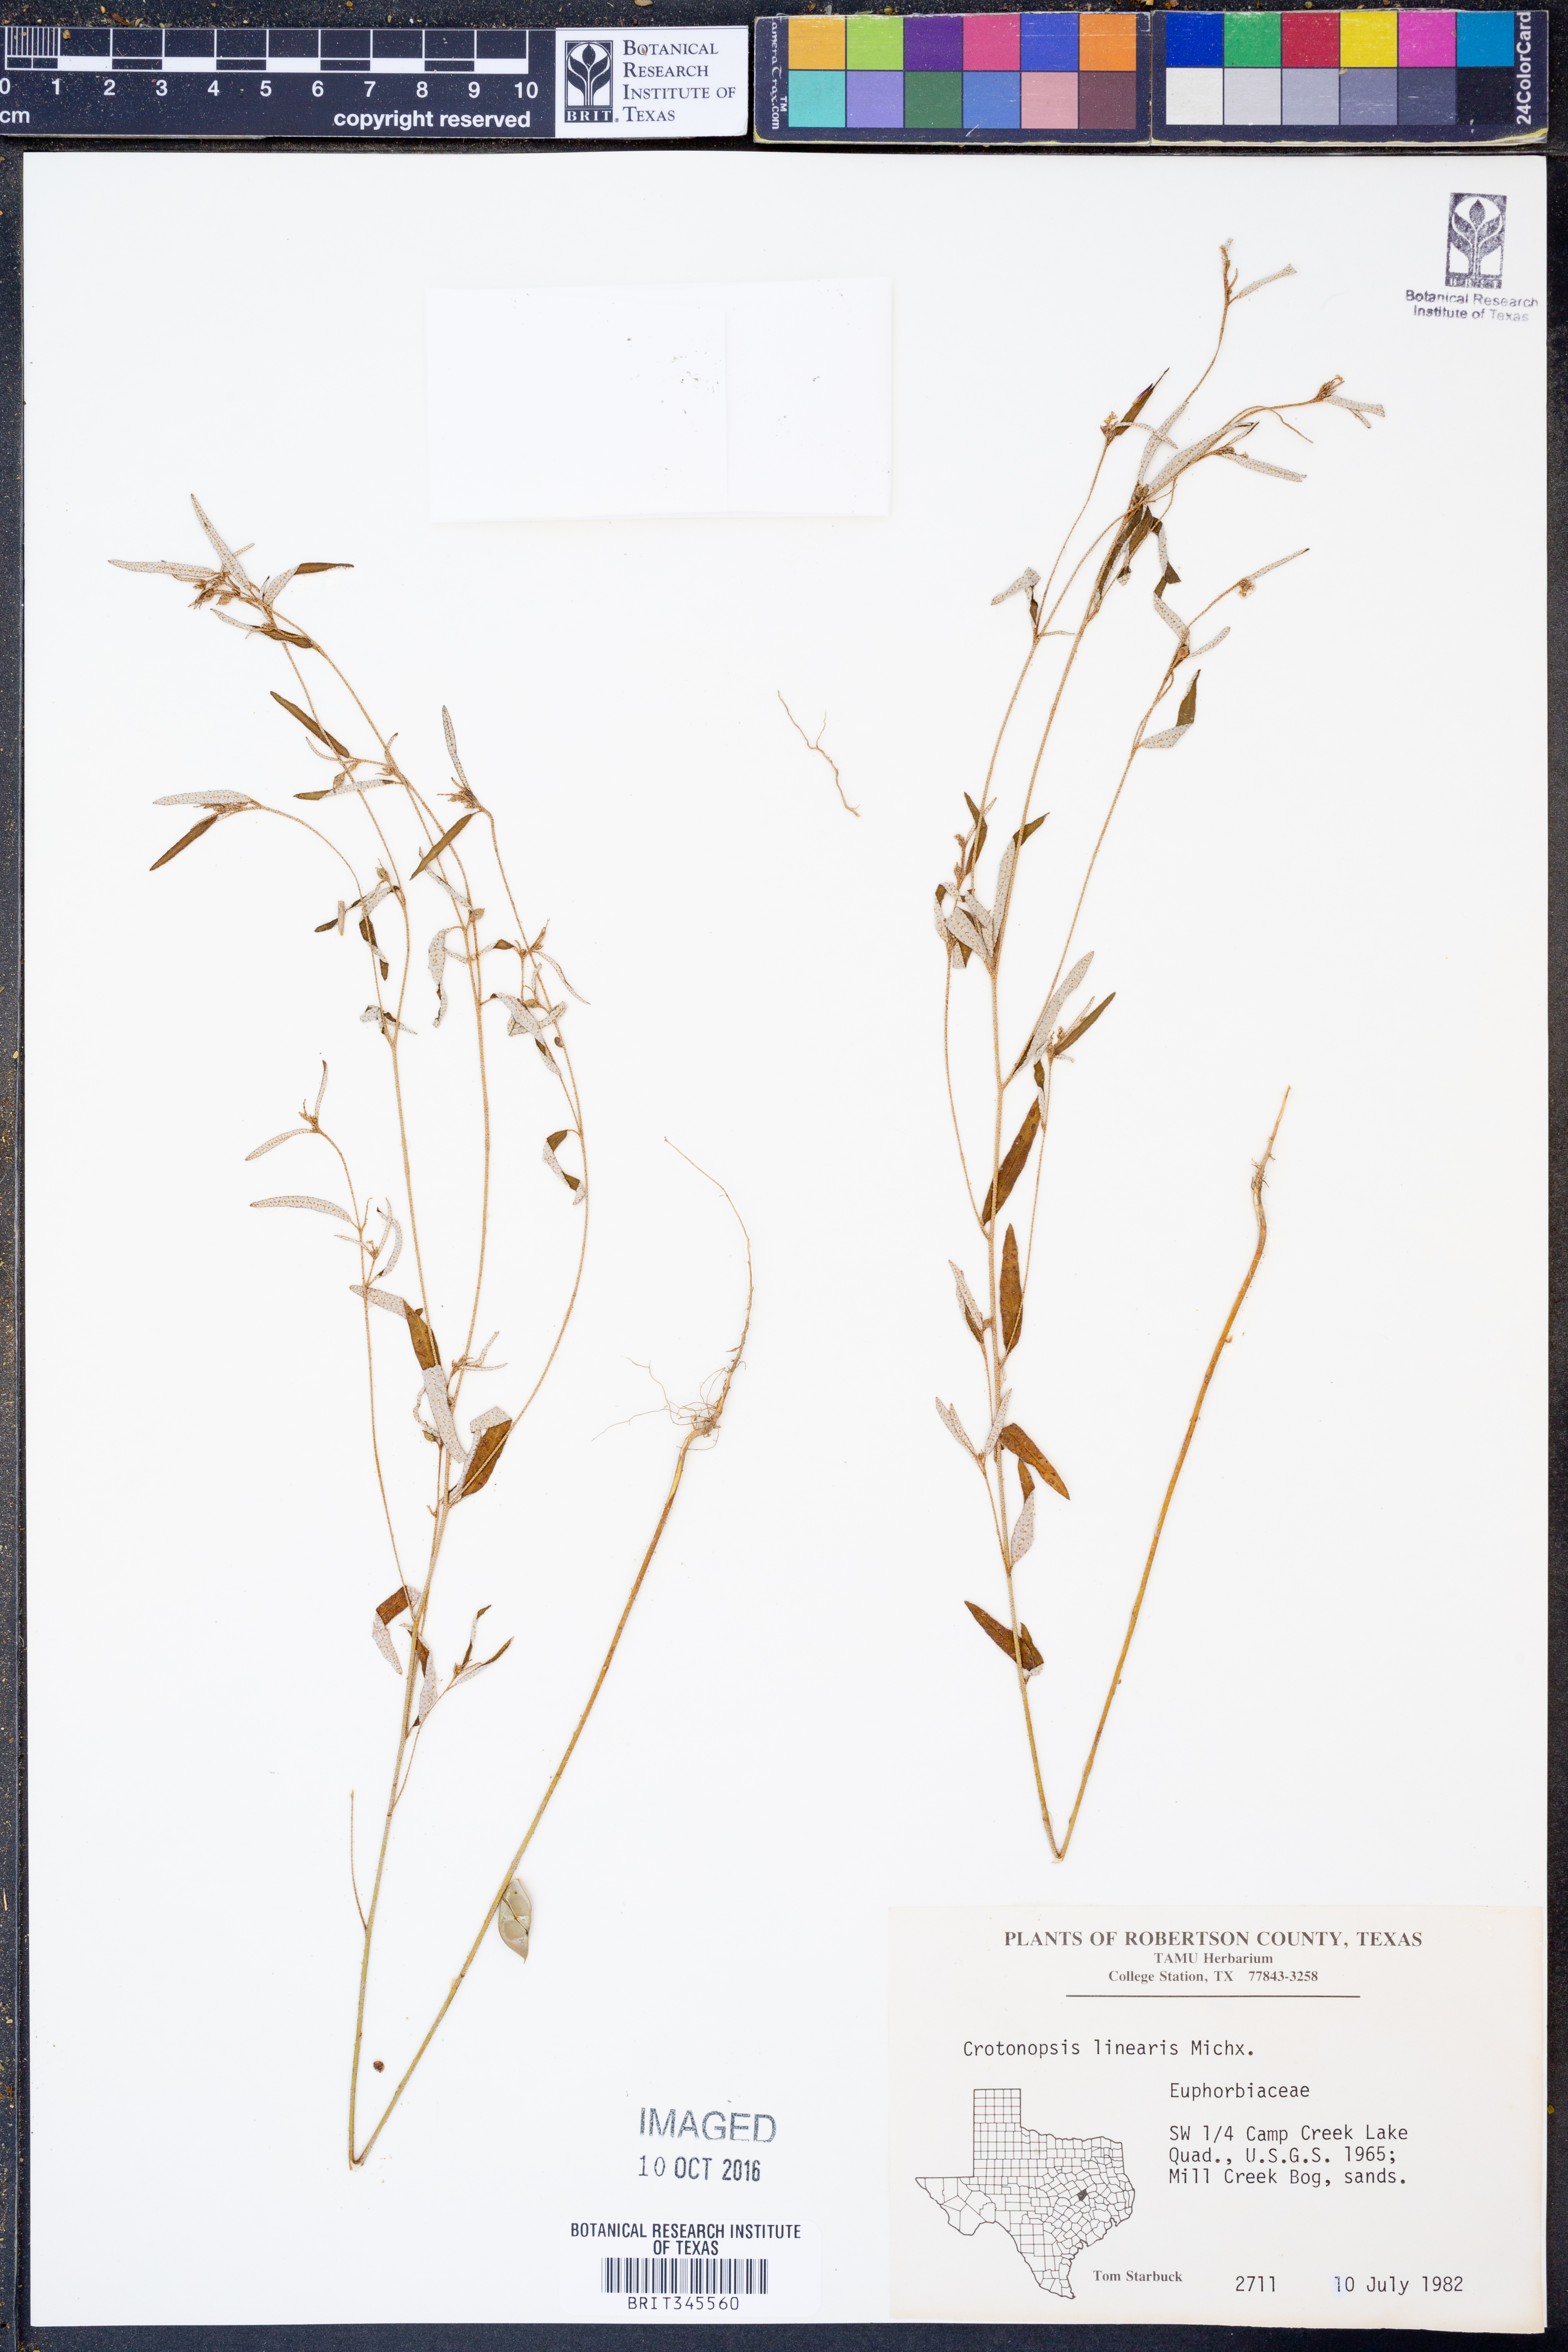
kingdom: Plantae
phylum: Tracheophyta
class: Magnoliopsida
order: Malpighiales
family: Euphorbiaceae
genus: Croton
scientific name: Croton michauxii
